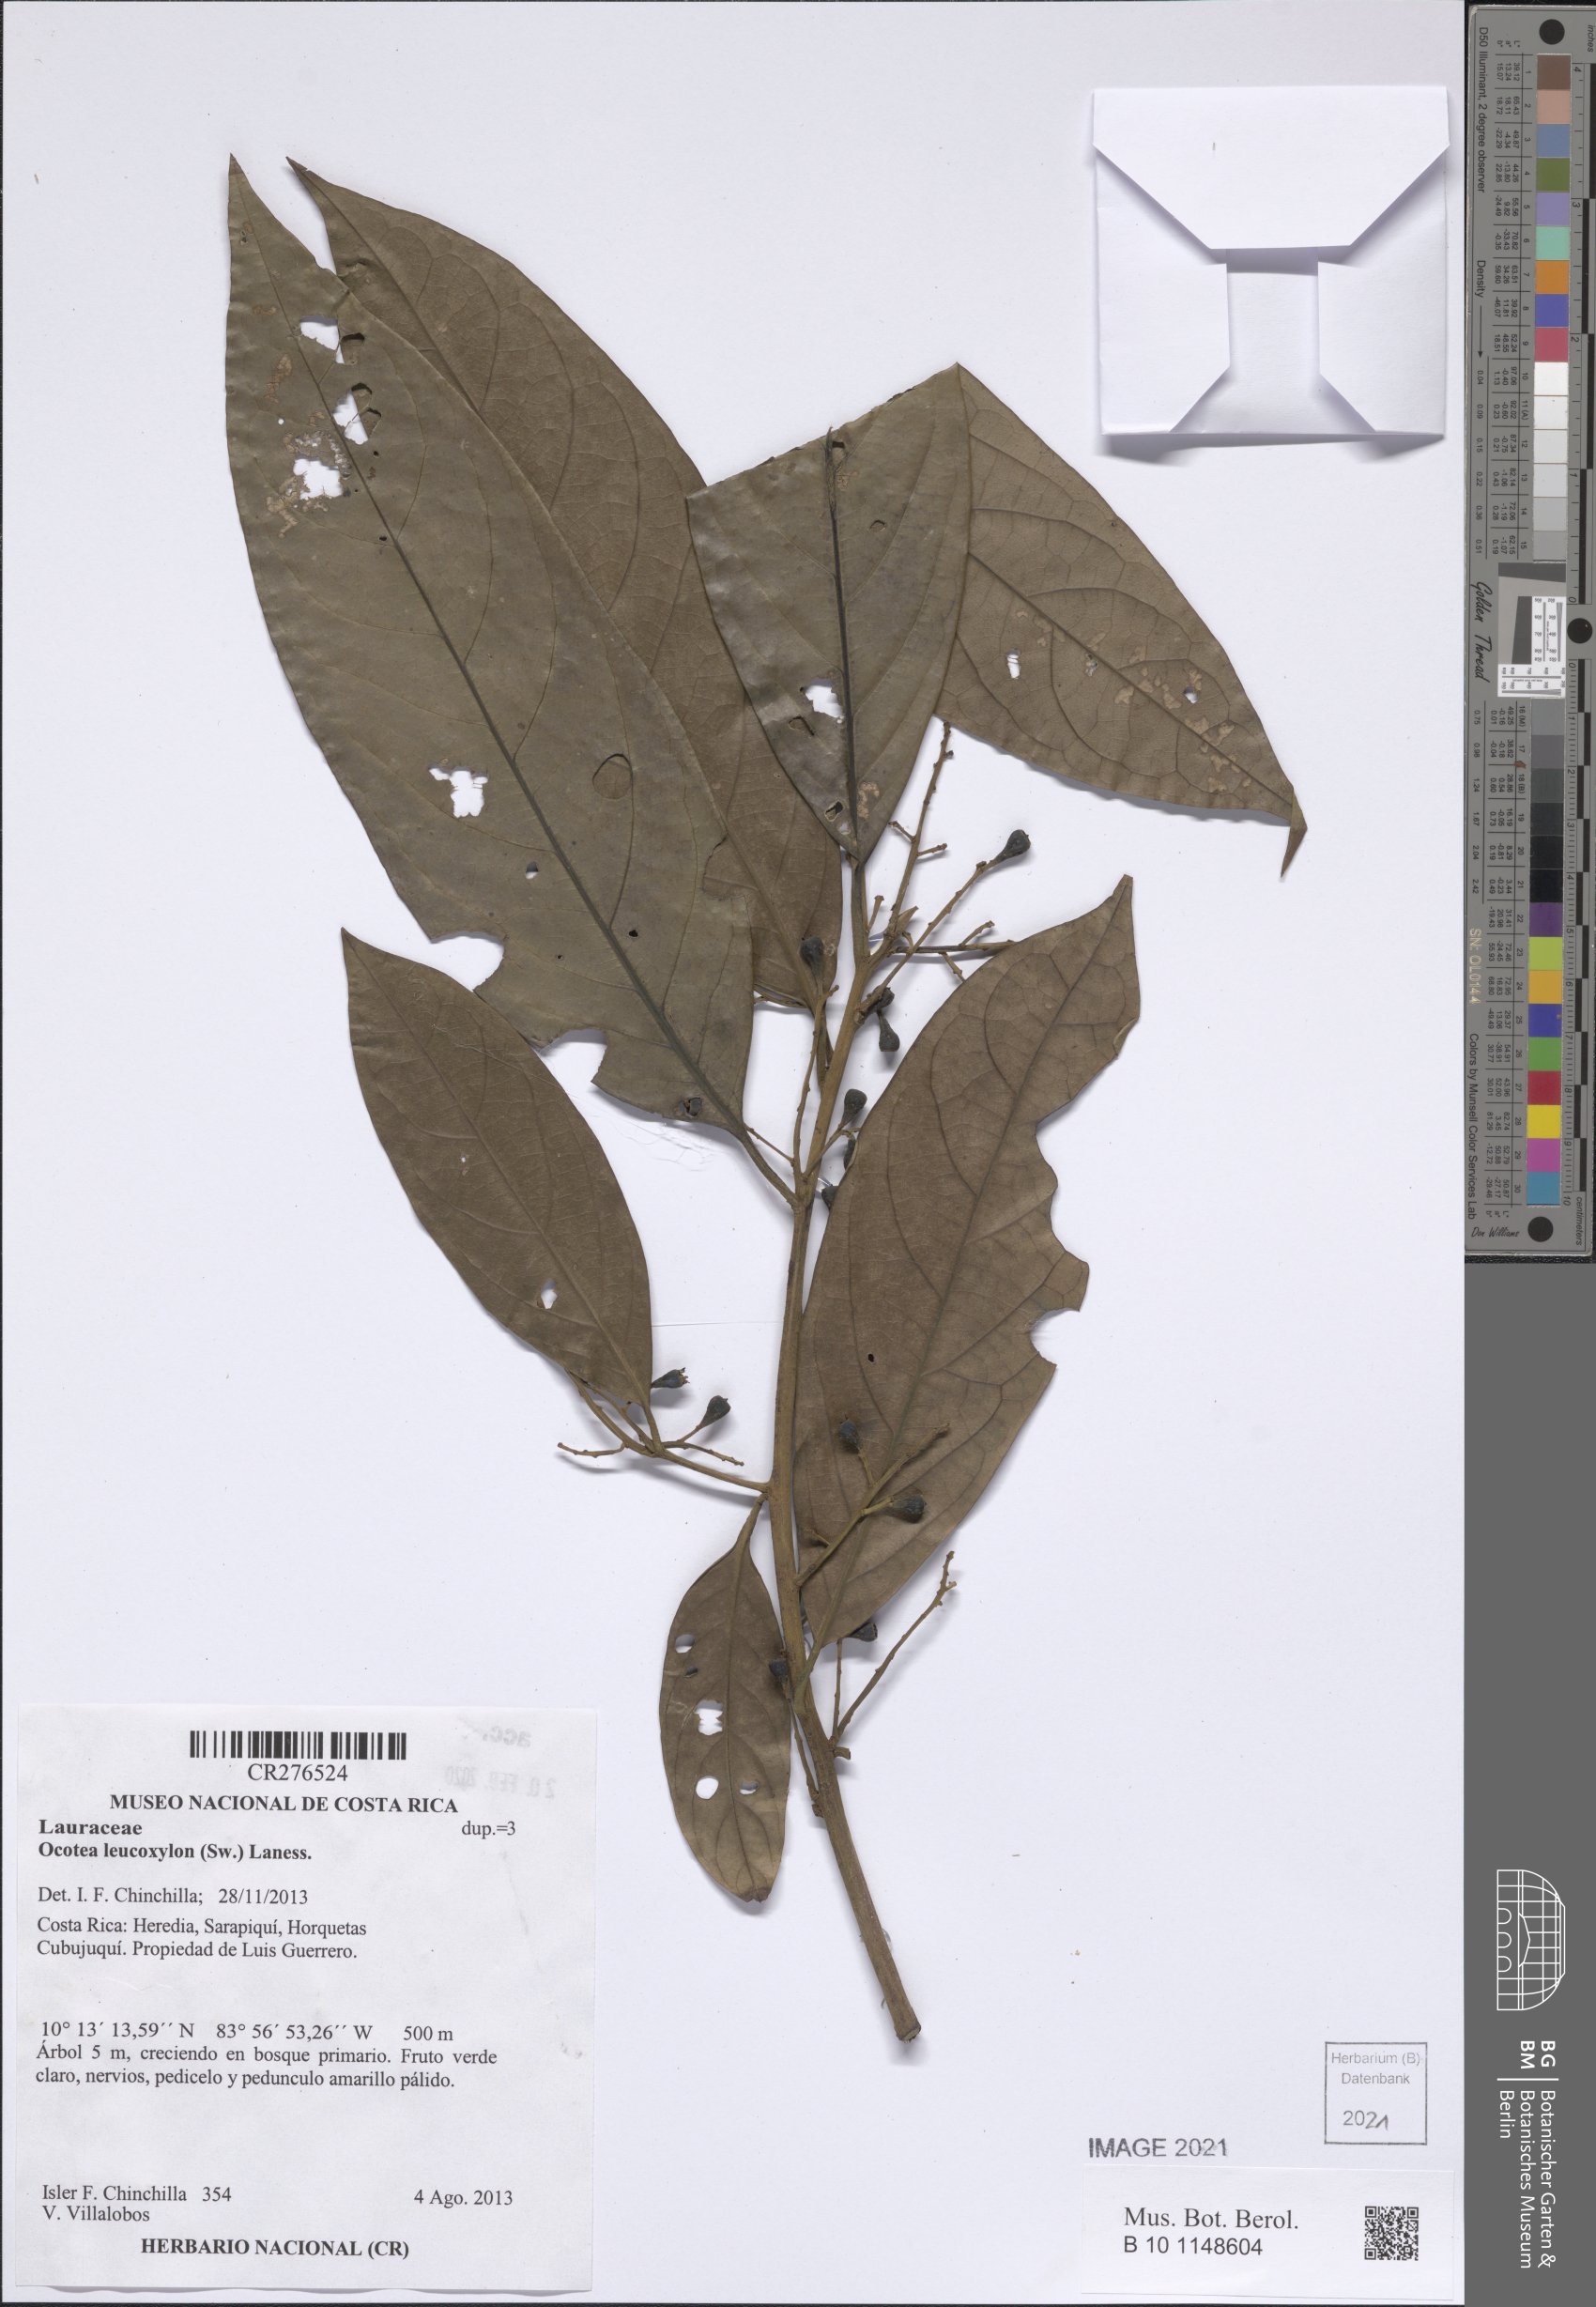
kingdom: Plantae
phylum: Tracheophyta
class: Magnoliopsida
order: Laurales
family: Lauraceae
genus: Ocotea
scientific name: Ocotea leucoxylon
